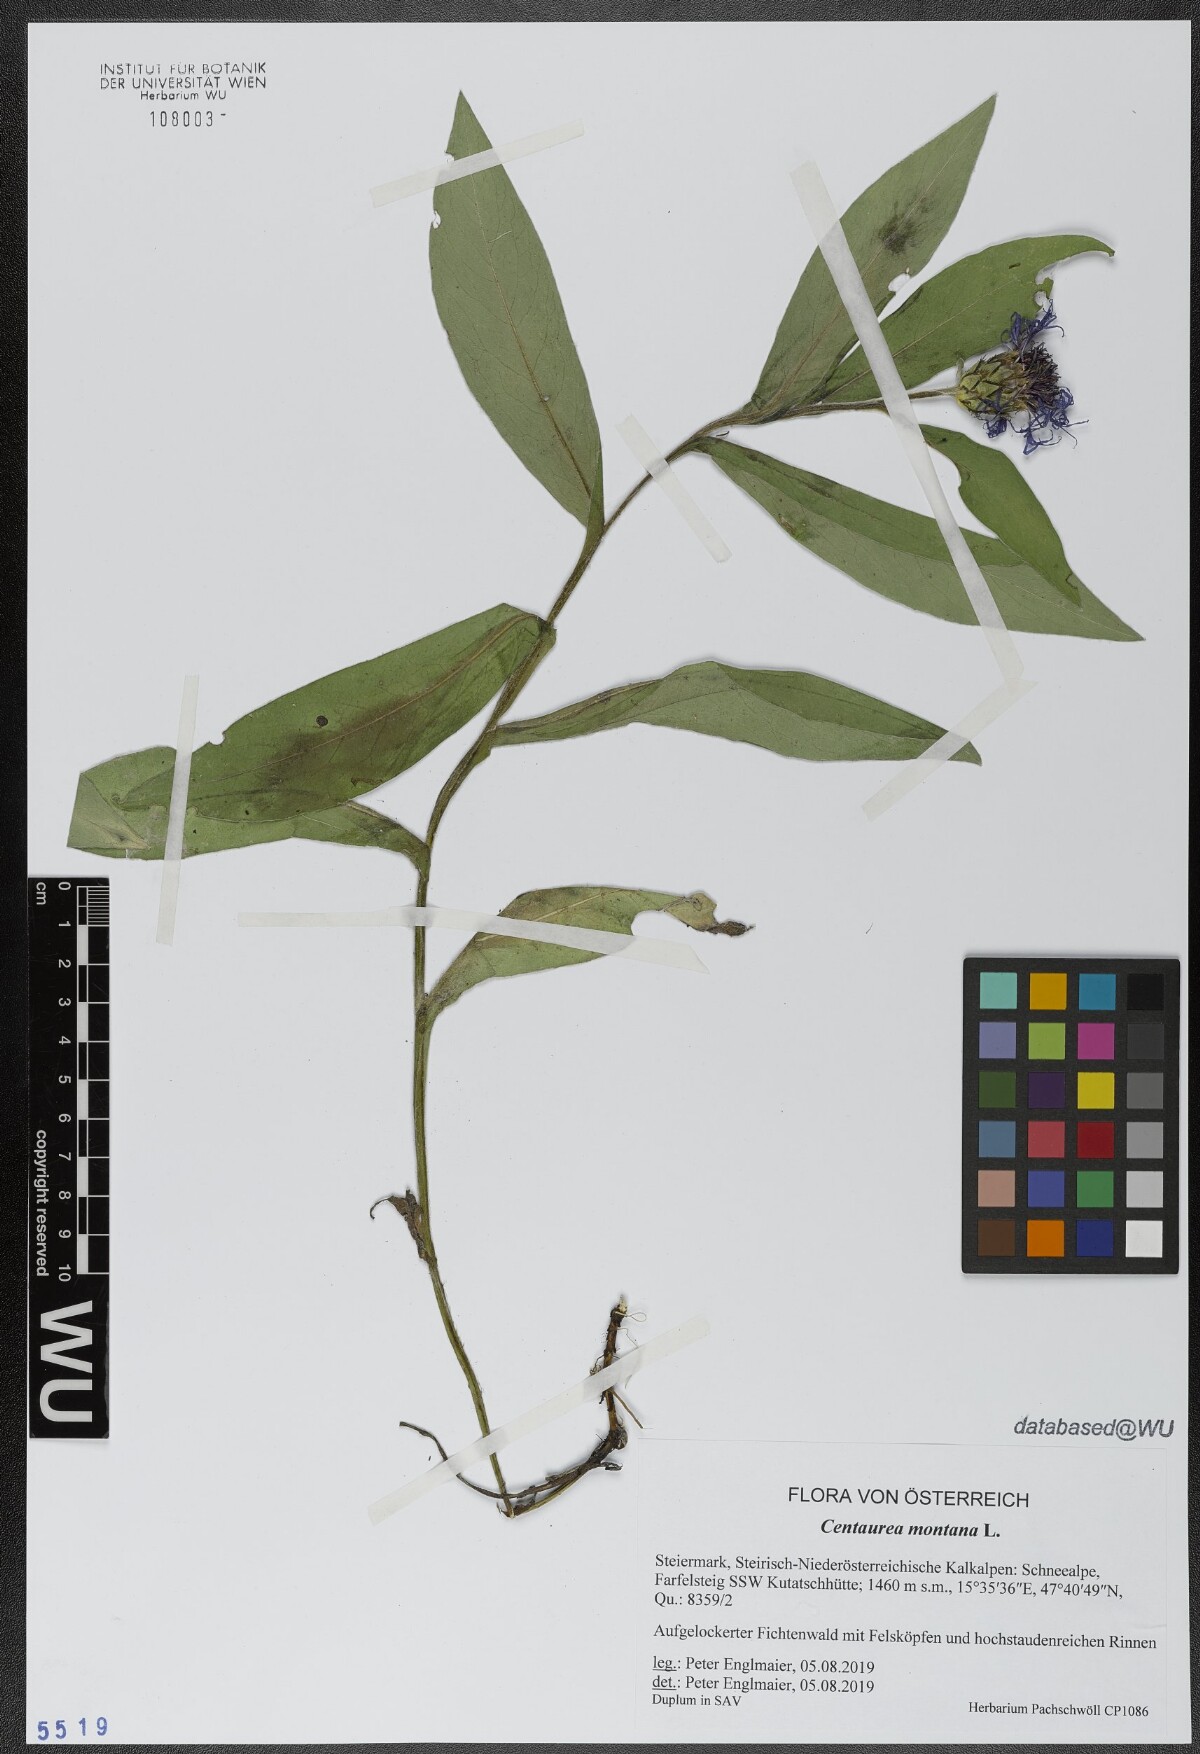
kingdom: Plantae
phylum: Tracheophyta
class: Magnoliopsida
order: Asterales
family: Asteraceae
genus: Centaurea
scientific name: Centaurea montana
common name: Perennial cornflower
